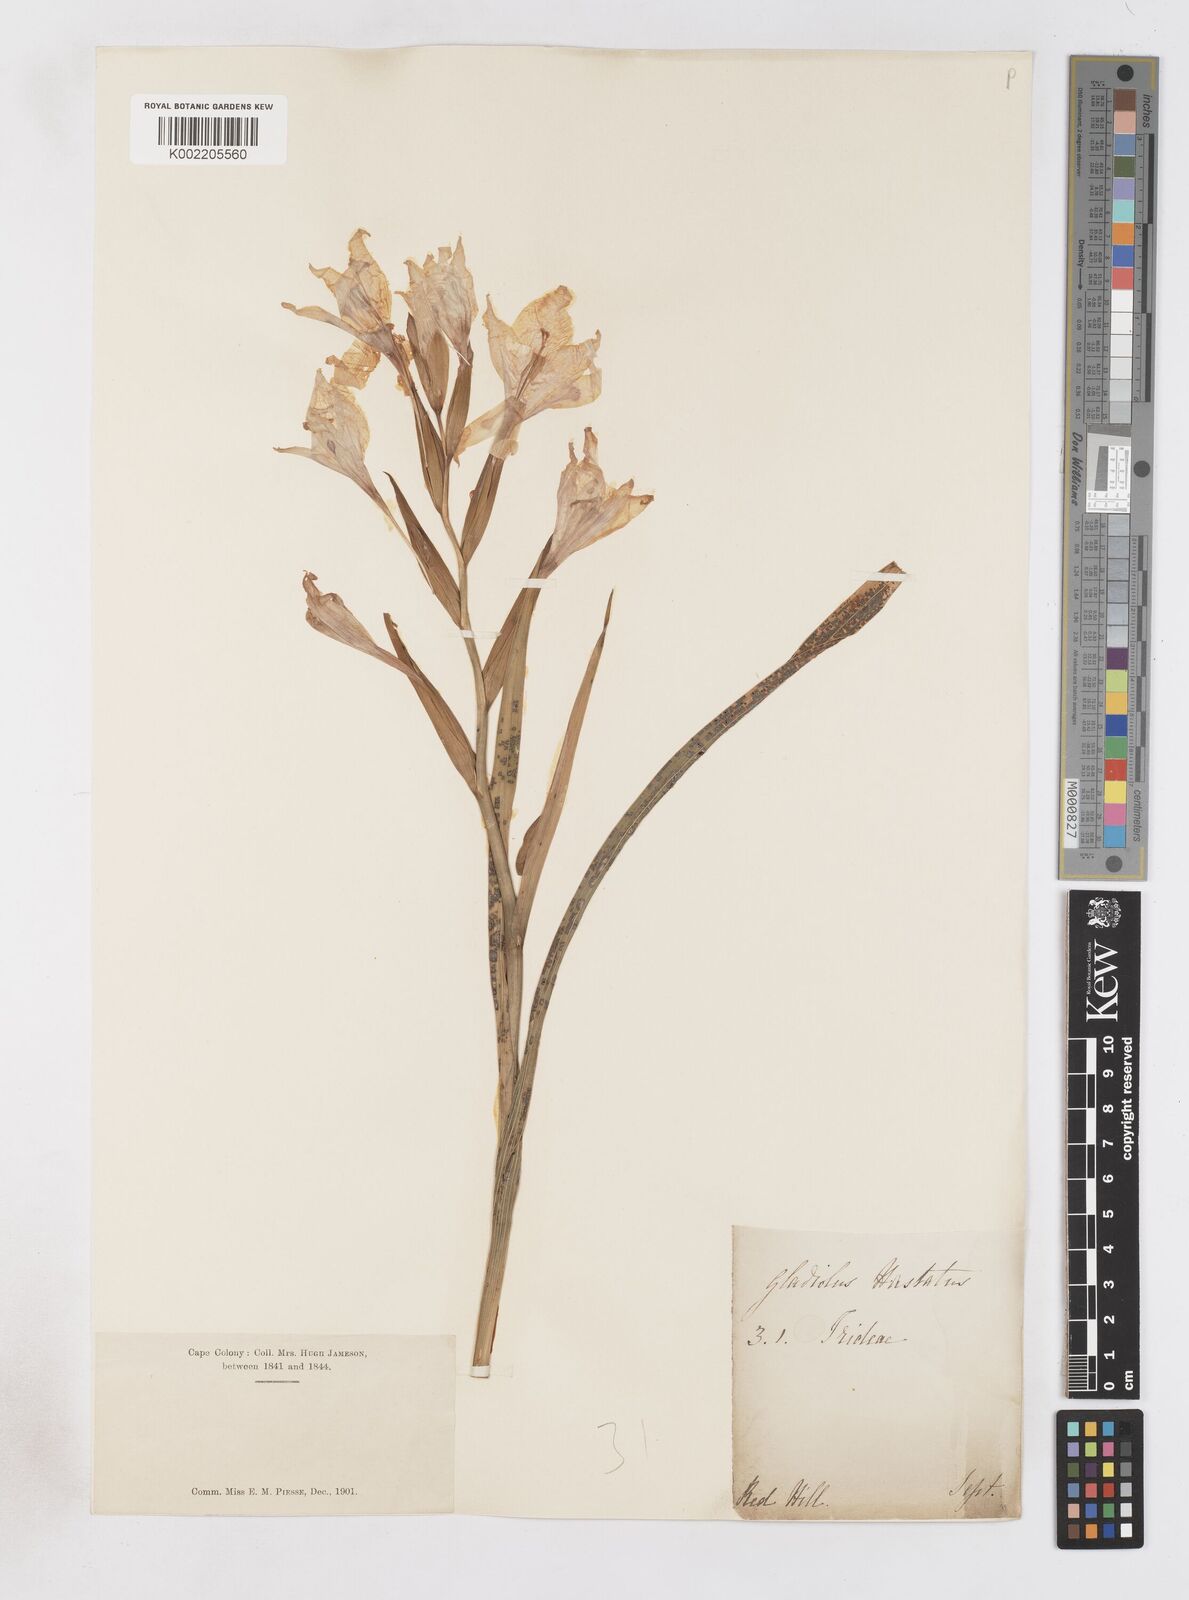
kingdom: Plantae
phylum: Tracheophyta
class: Liliopsida
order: Asparagales
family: Iridaceae
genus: Gladiolus
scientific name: Gladiolus carneus
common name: Painted-lady
